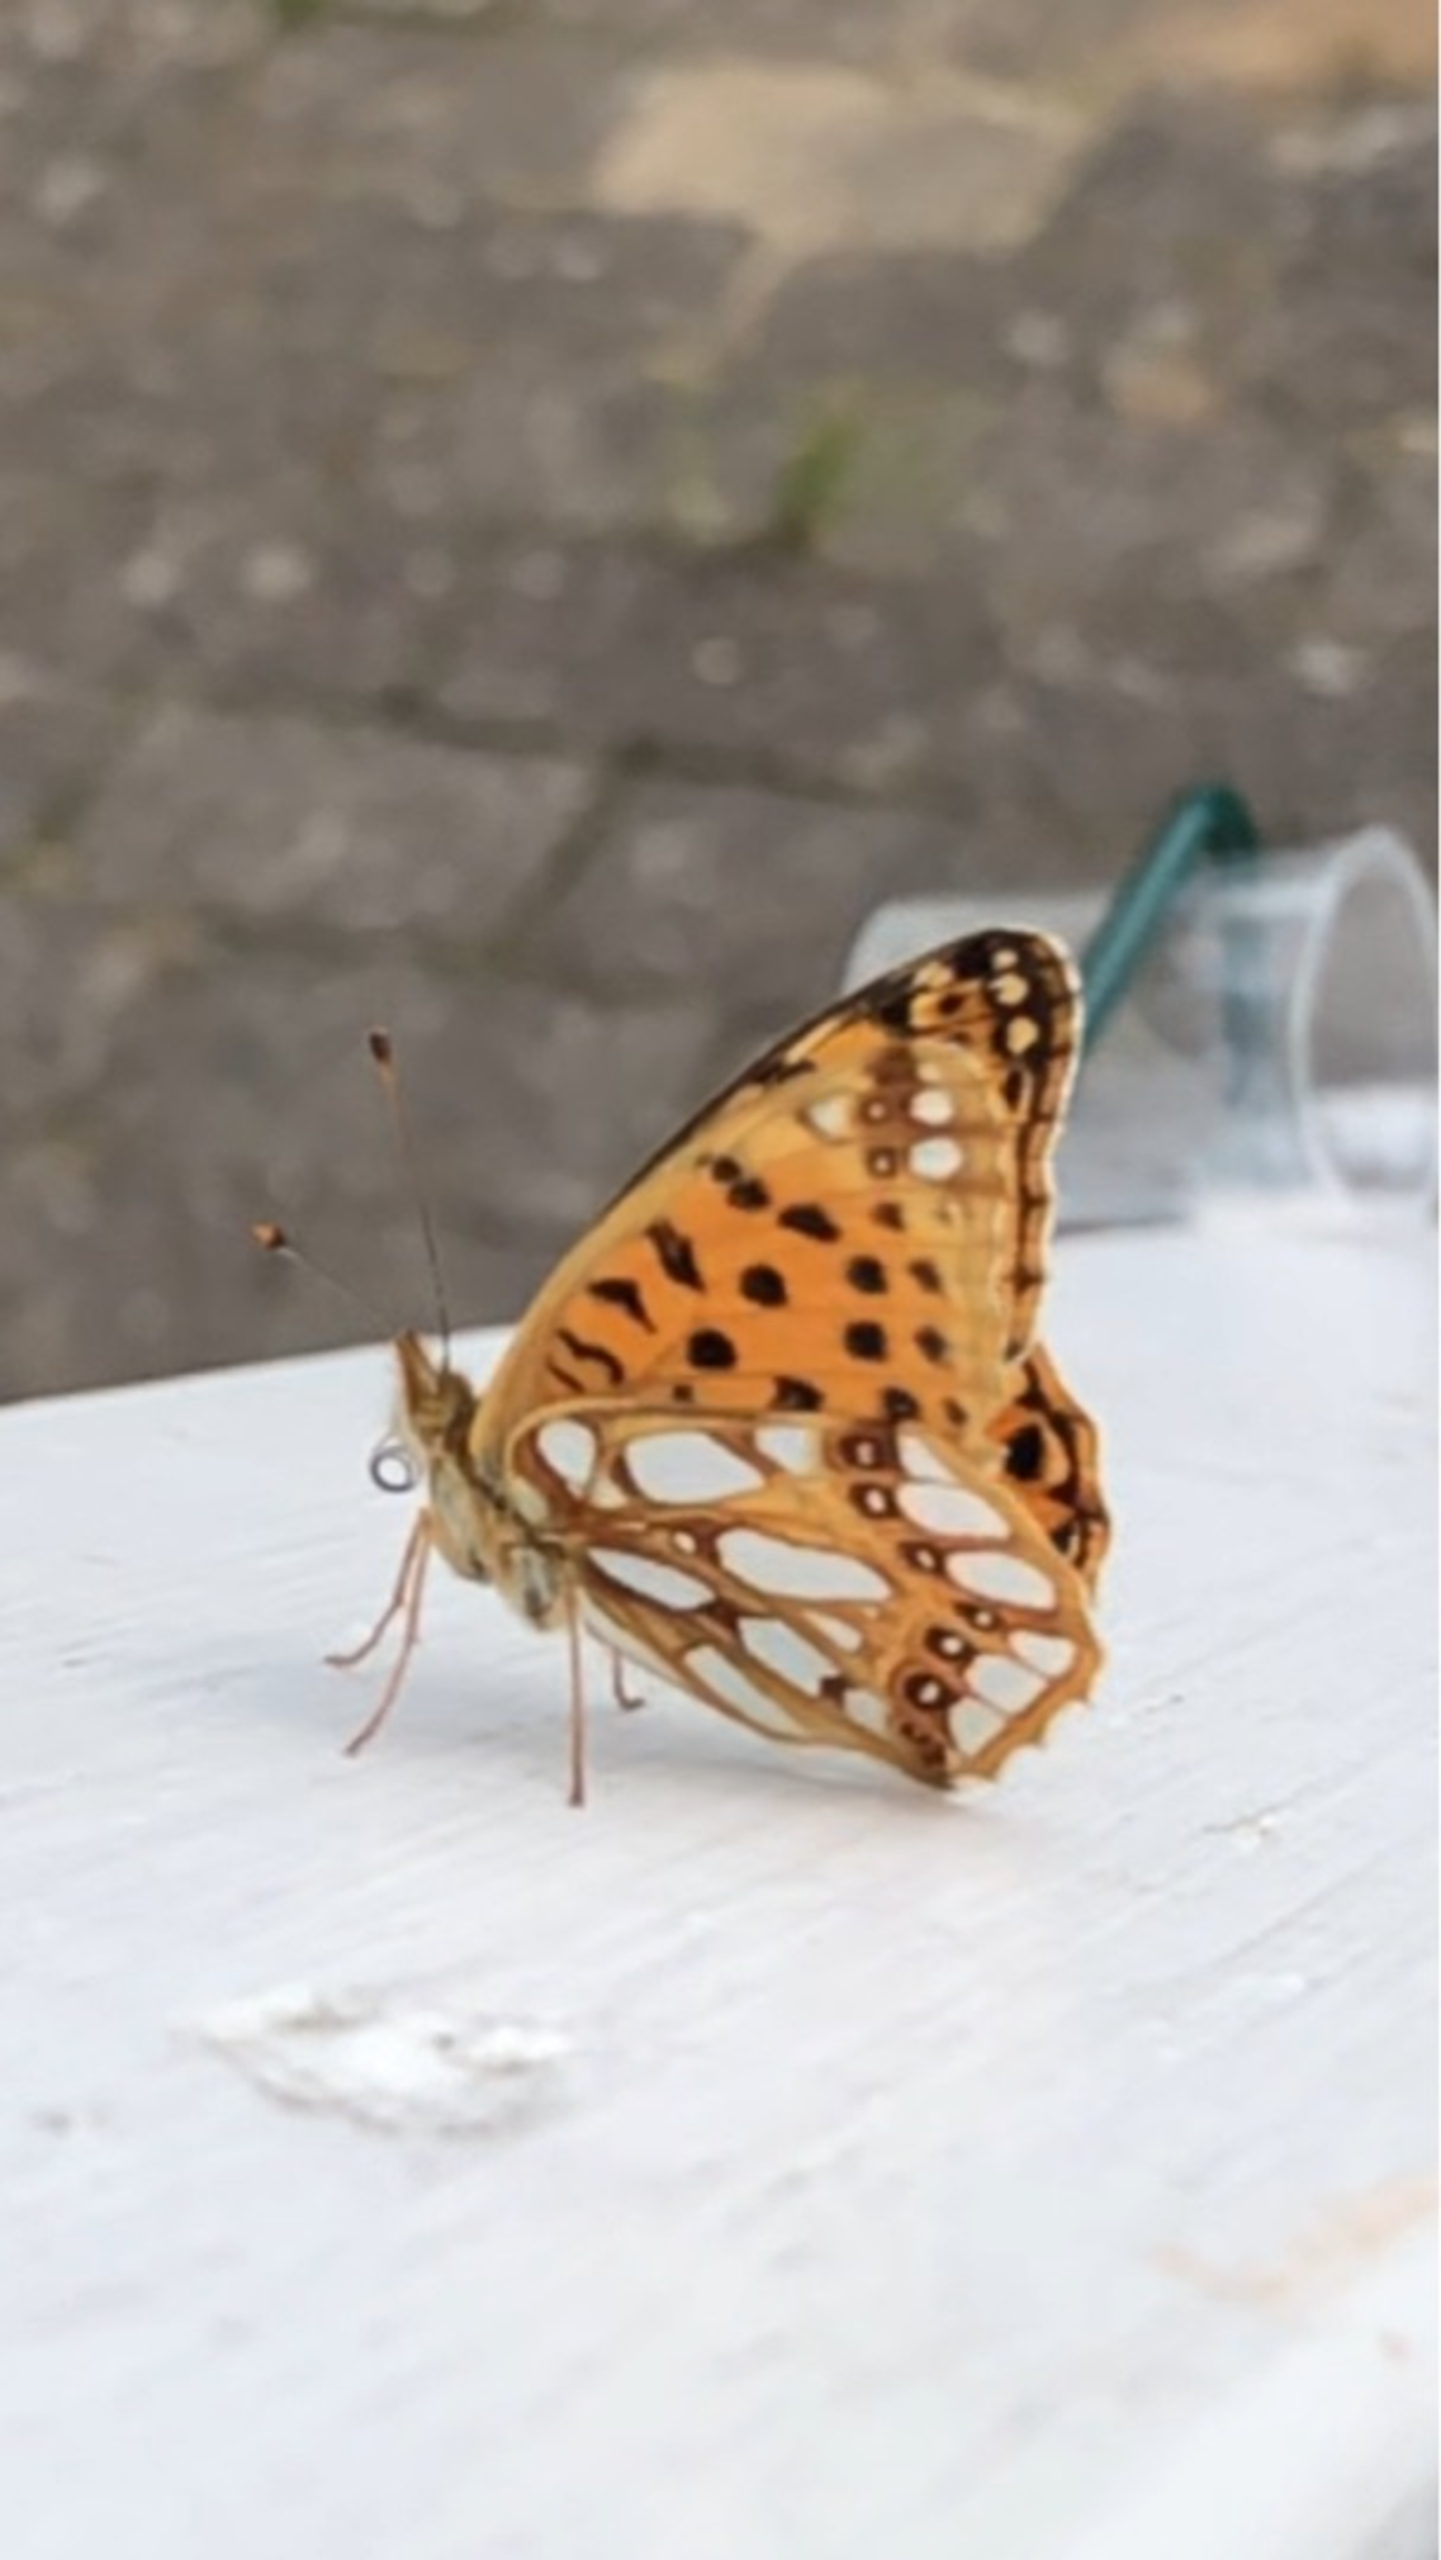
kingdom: Animalia
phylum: Arthropoda
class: Insecta
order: Lepidoptera
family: Nymphalidae
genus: Issoria
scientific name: Issoria lathonia
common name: Storplettet perlemorsommerfugl
